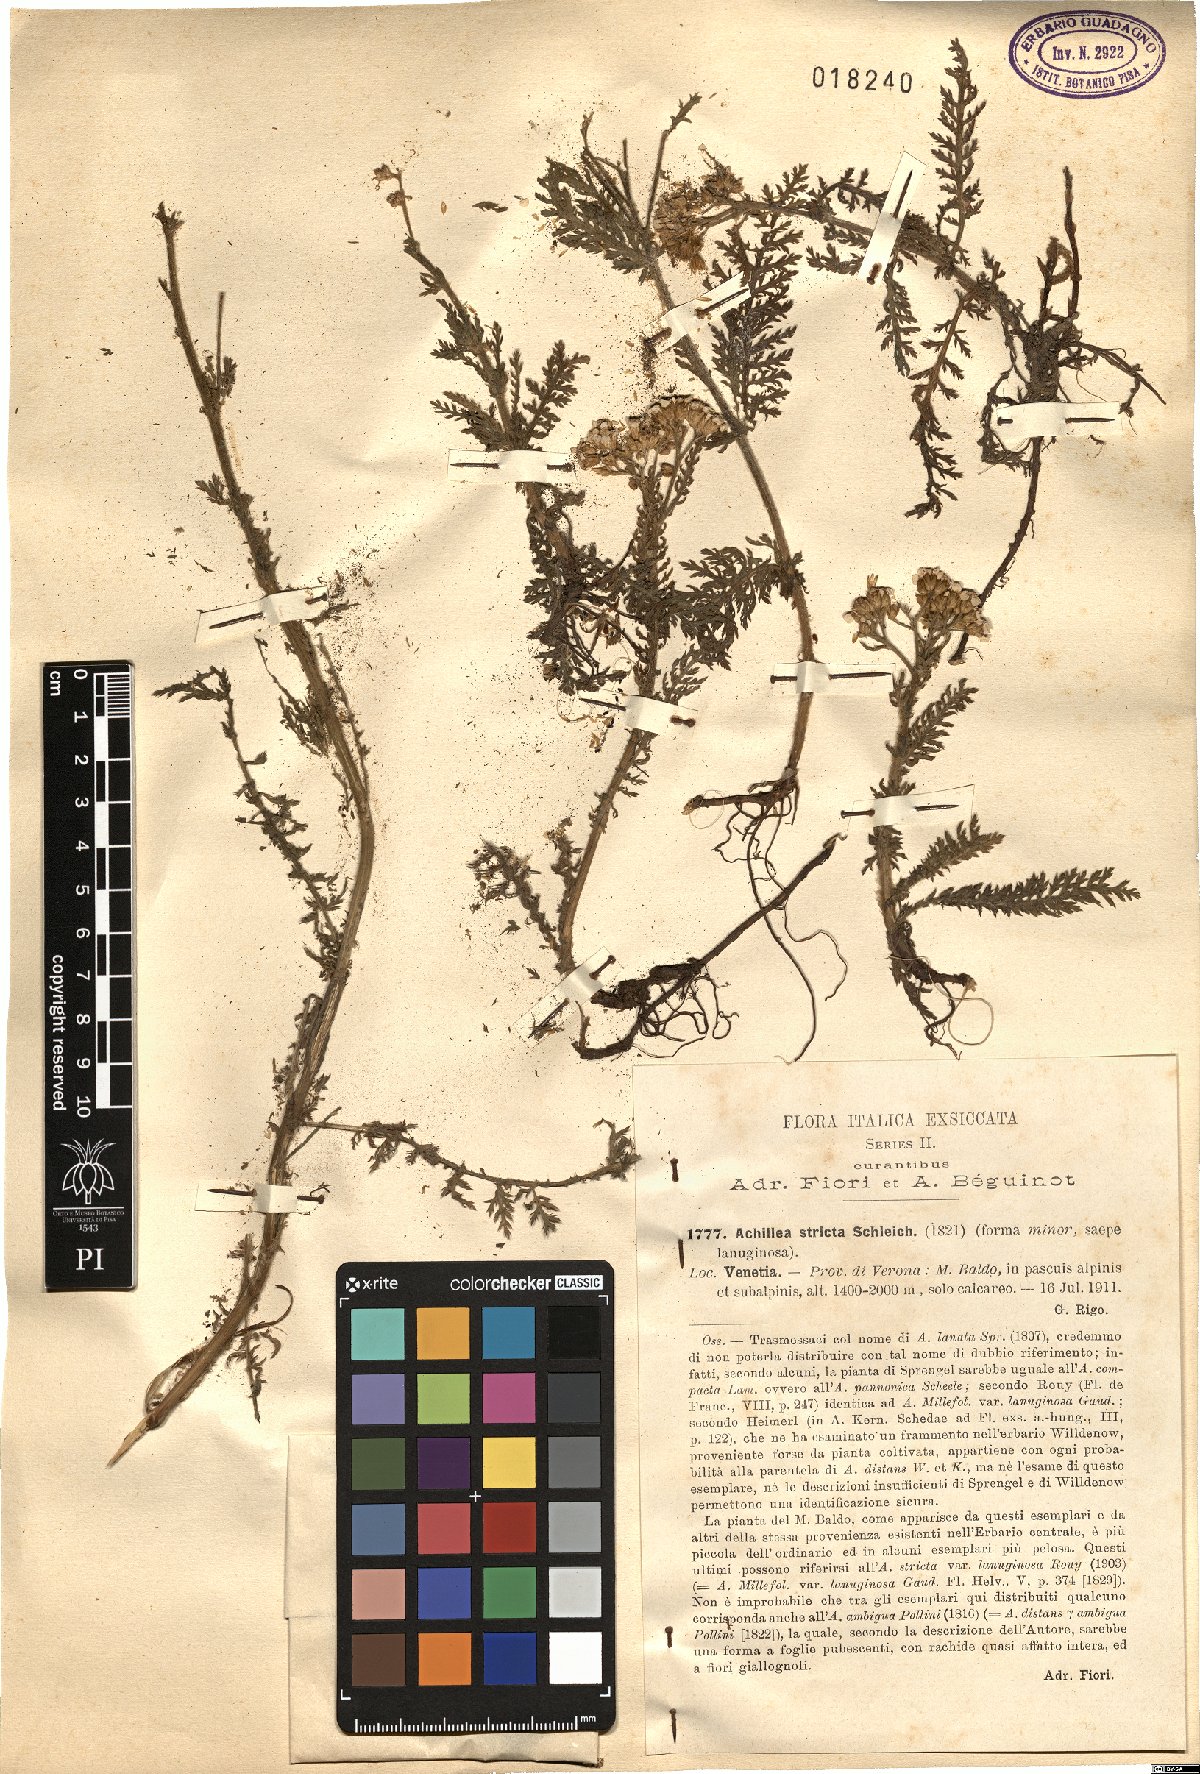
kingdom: Plantae
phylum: Tracheophyta
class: Magnoliopsida
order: Asterales
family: Asteraceae
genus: Achillea
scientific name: Achillea distans
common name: Tall yarrow
